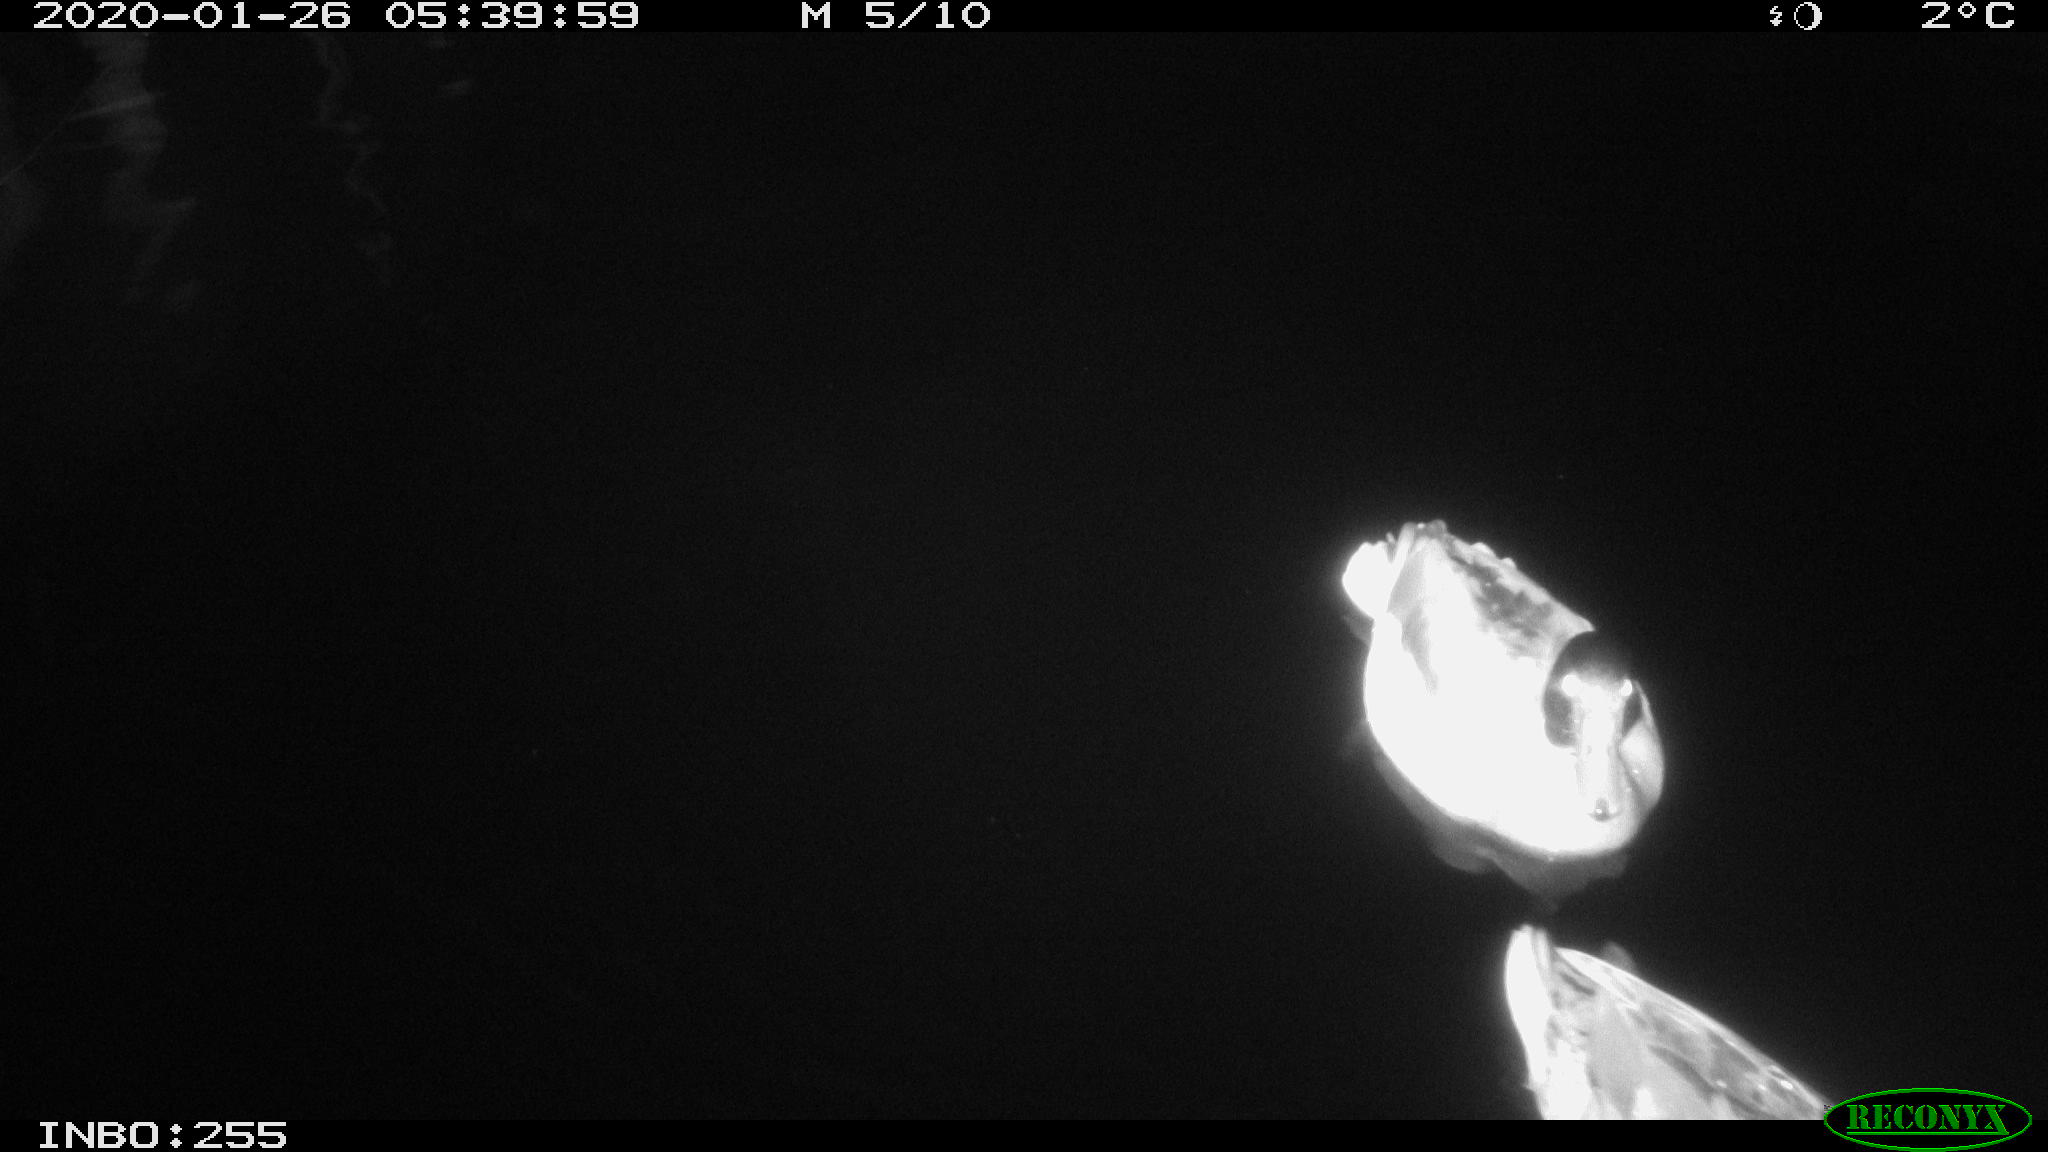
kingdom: Animalia
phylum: Chordata
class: Aves
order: Anseriformes
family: Anatidae
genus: Anas
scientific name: Anas platyrhynchos
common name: Mallard
